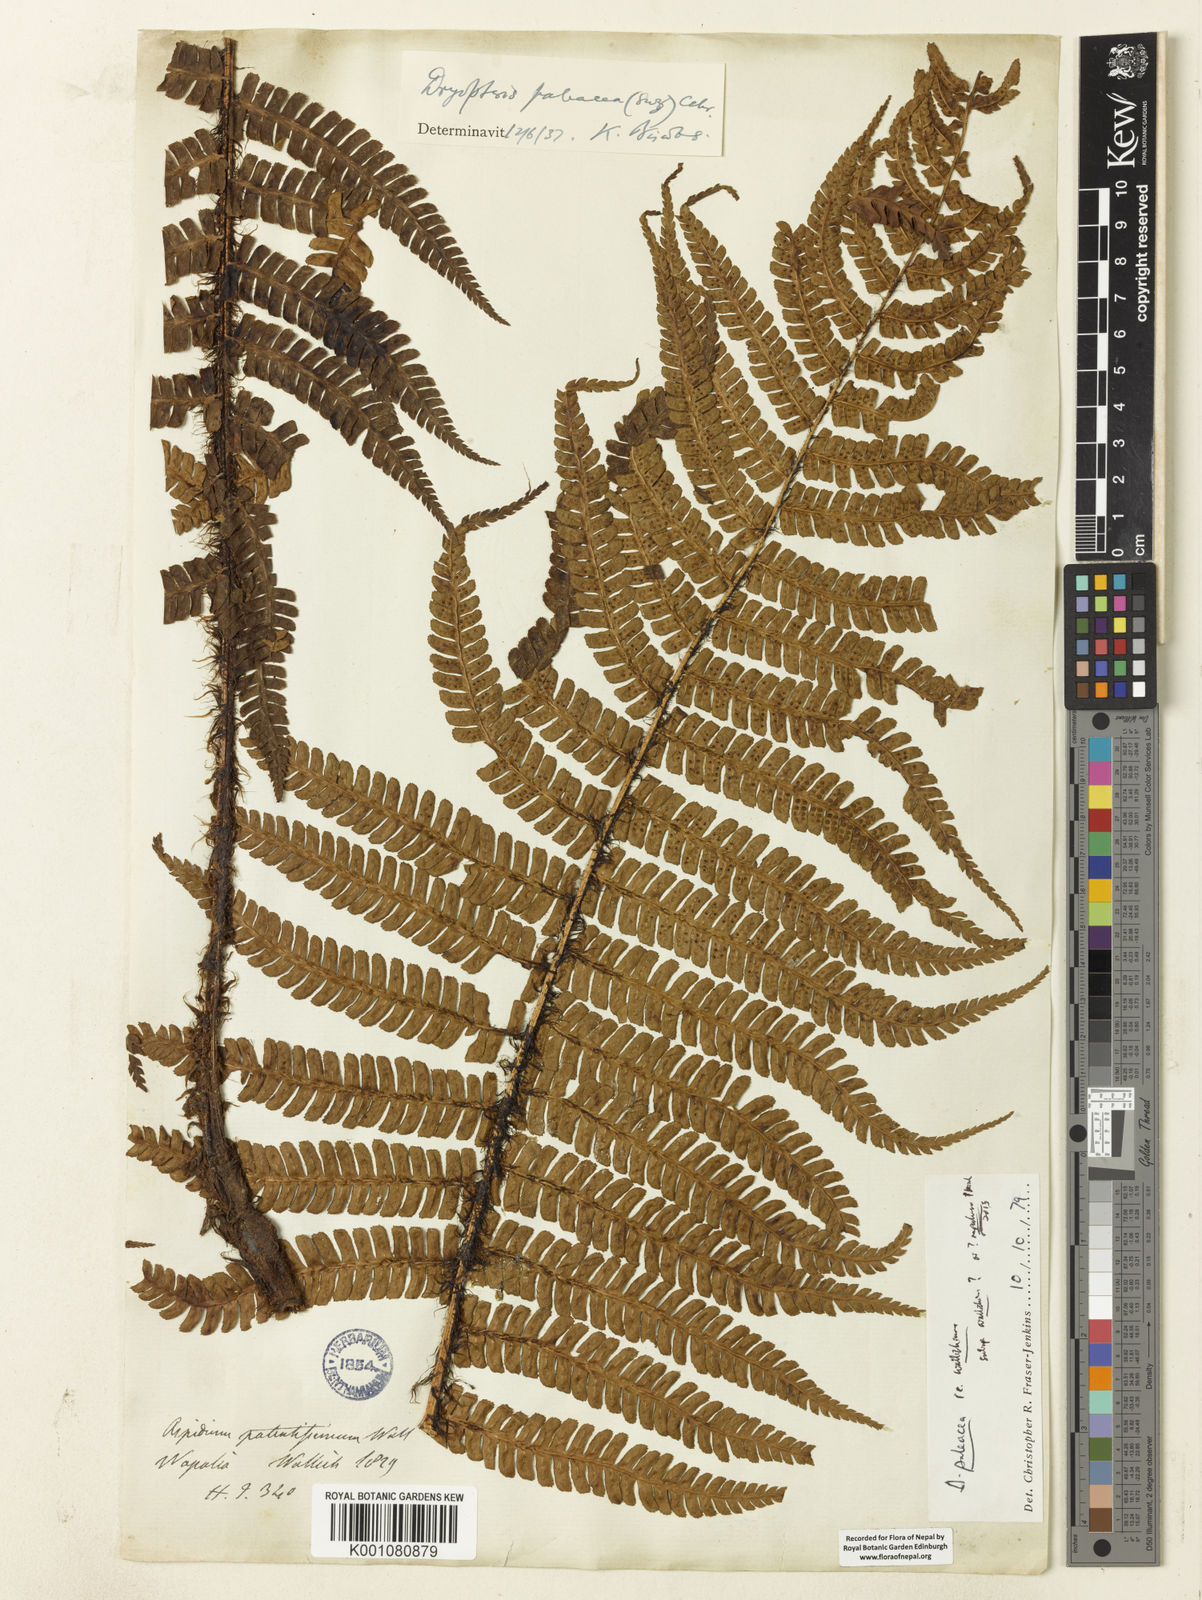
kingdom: Plantae
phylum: Tracheophyta
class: Polypodiopsida
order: Polypodiales
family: Dryopteridaceae
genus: Dryopteris
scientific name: Dryopteris wallichiana
